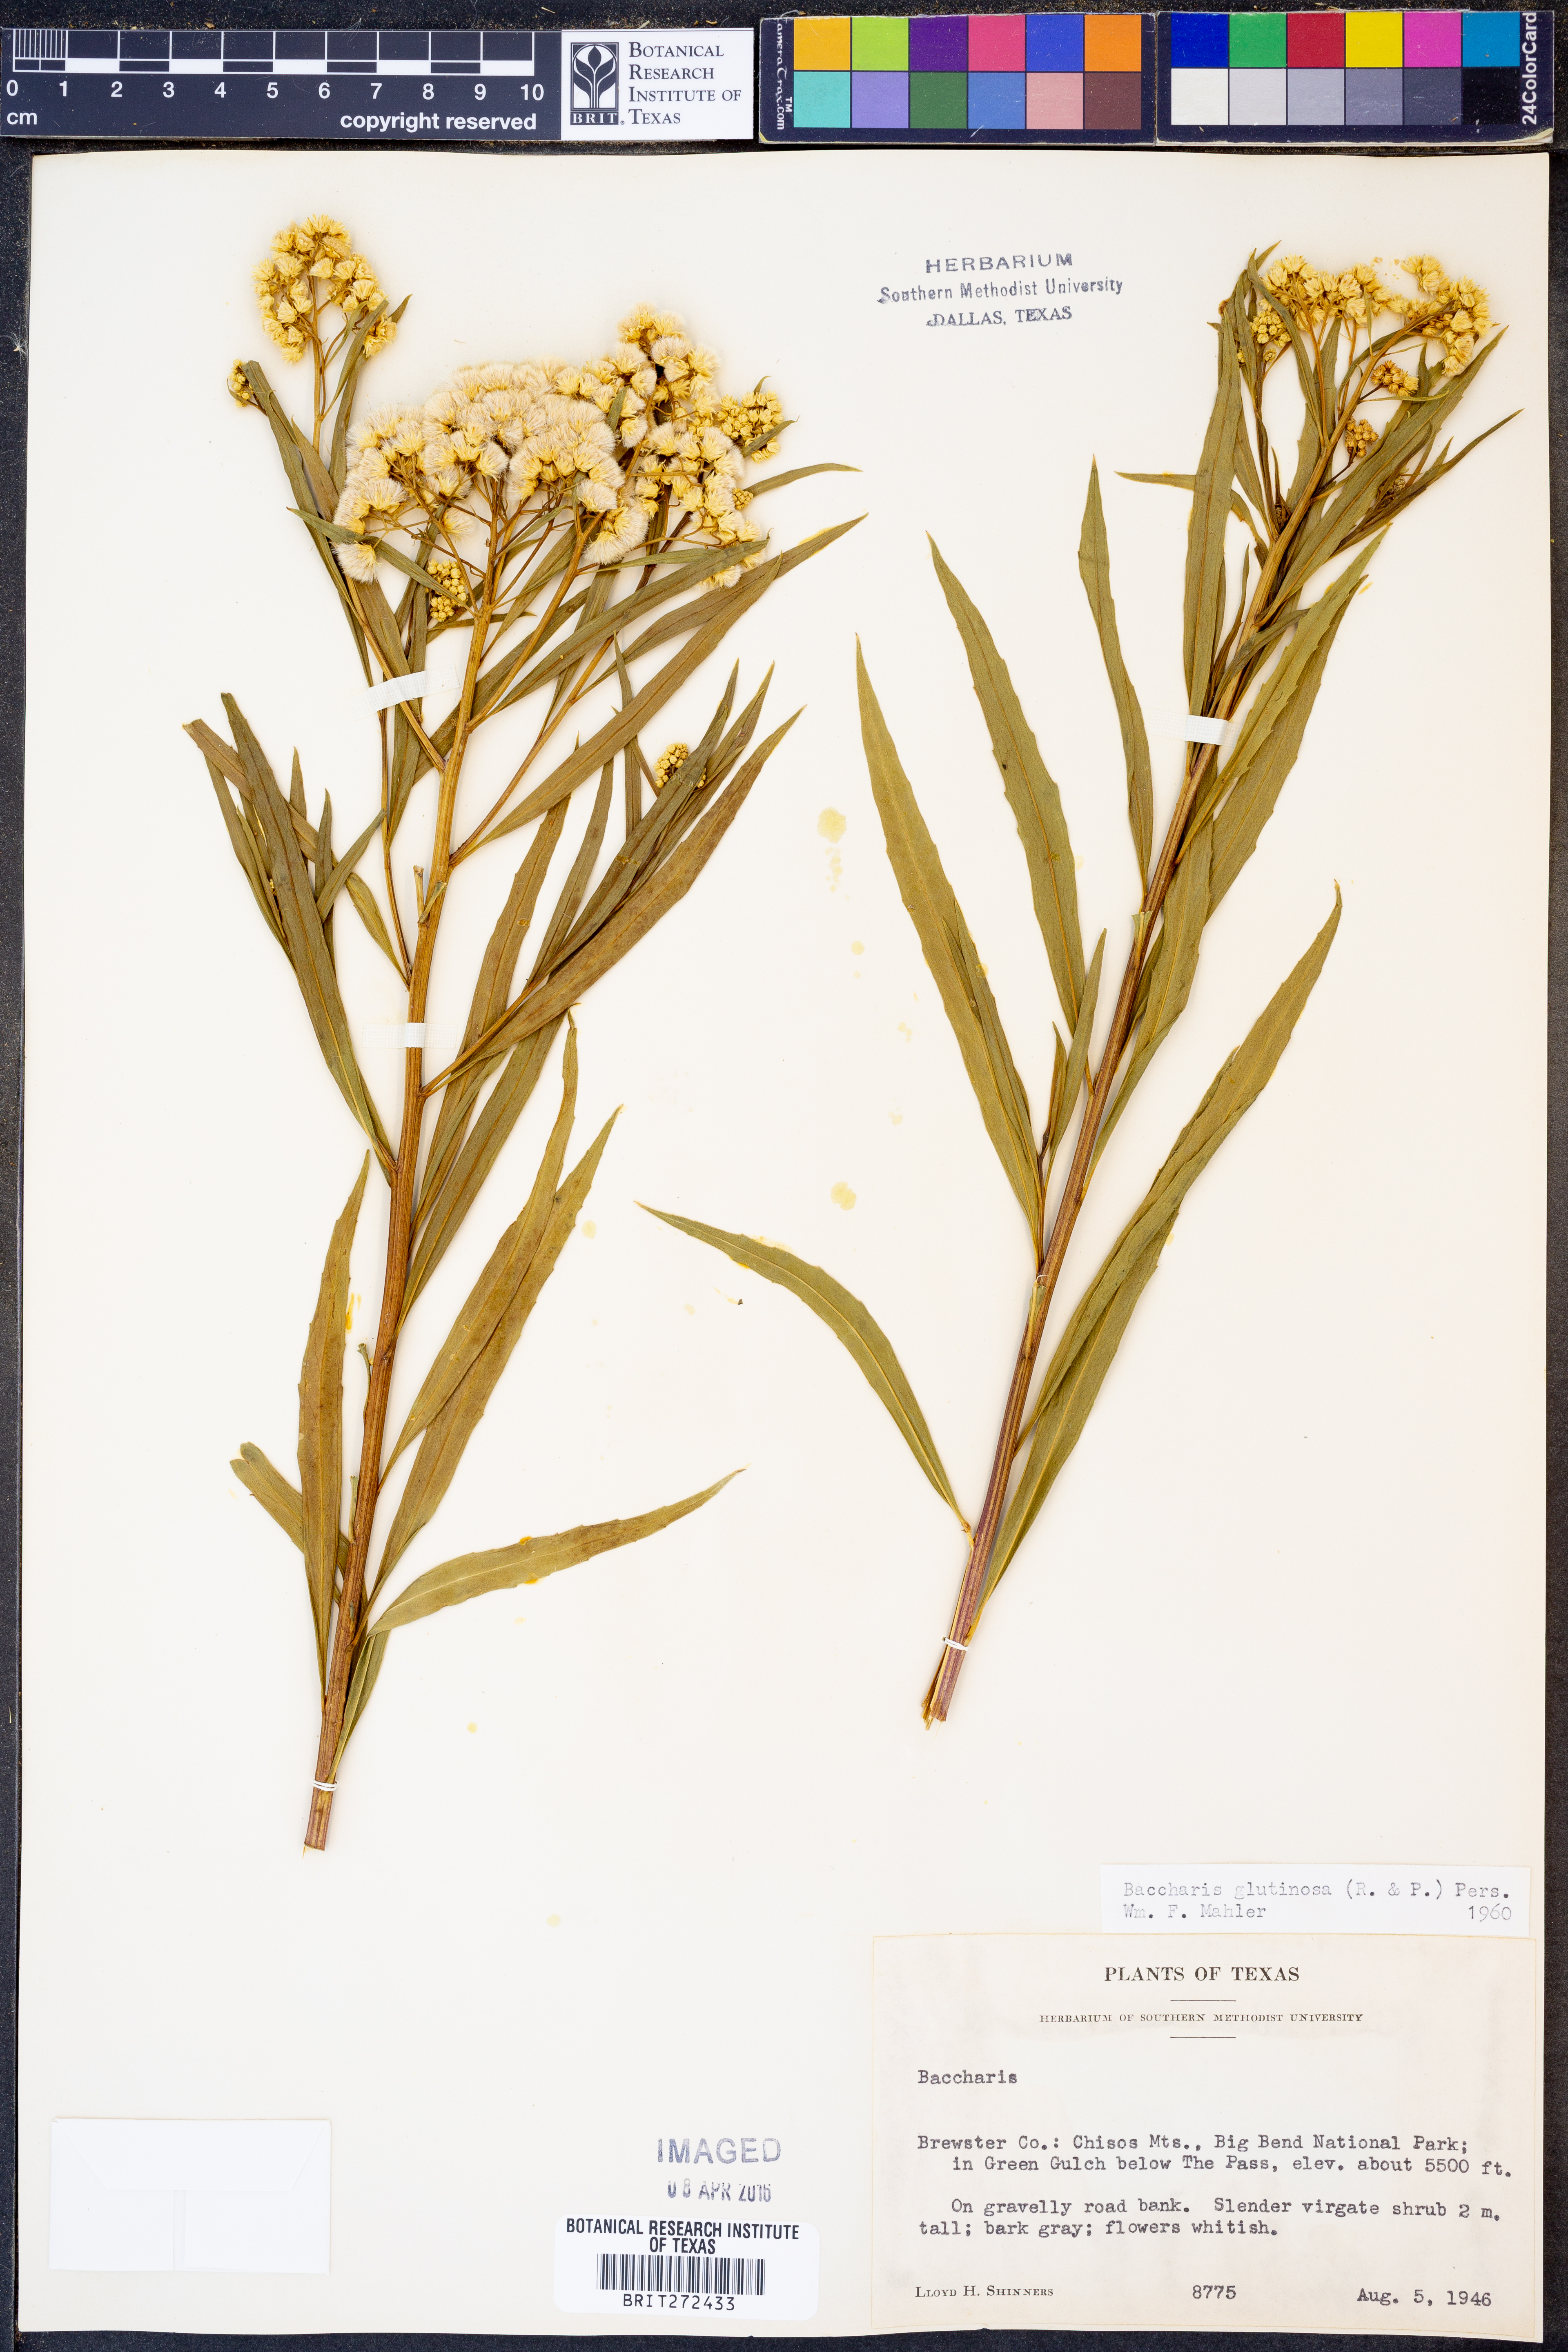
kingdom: Plantae
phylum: Tracheophyta
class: Magnoliopsida
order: Asterales
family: Asteraceae
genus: Baccharis
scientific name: Baccharis glutinosa
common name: Saltmarsh baccharis
